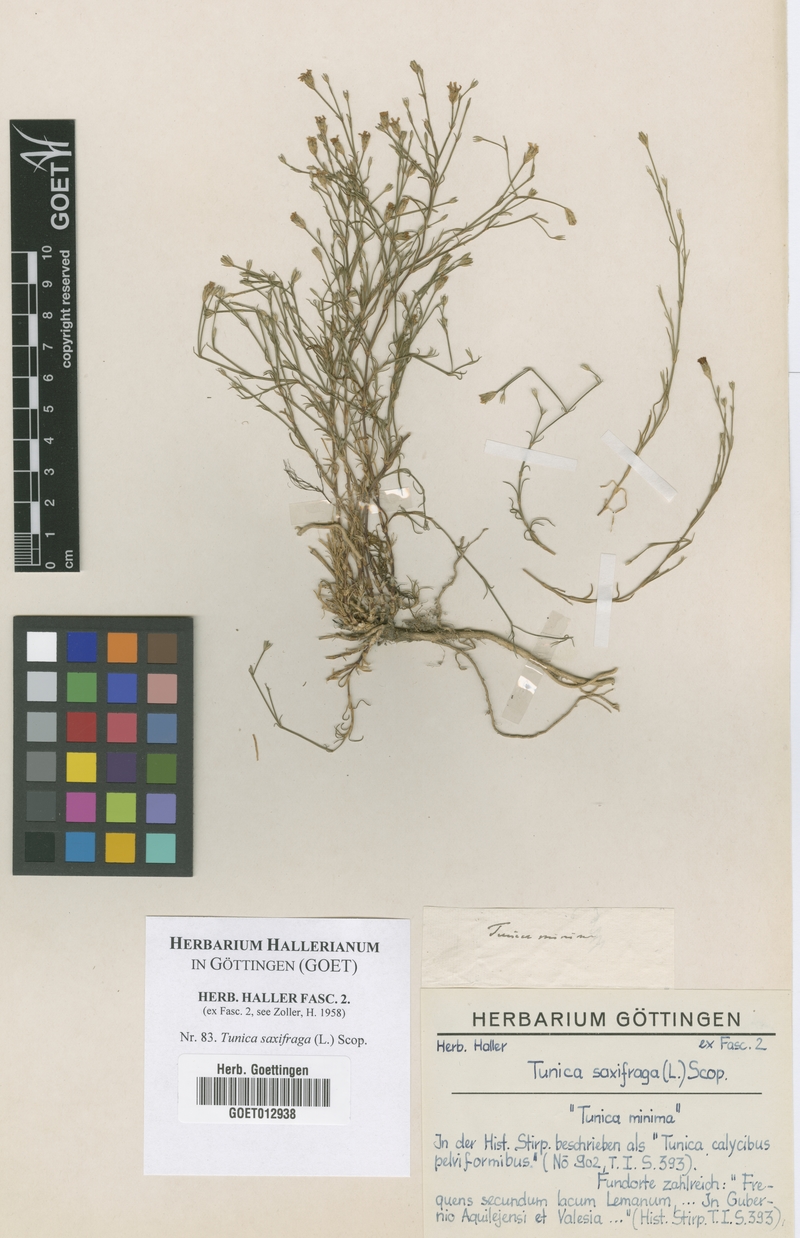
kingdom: Plantae
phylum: Tracheophyta
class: Magnoliopsida
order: Caryophyllales
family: Caryophyllaceae
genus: Petrorhagia
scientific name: Petrorhagia saxifraga
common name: Tunicflower
